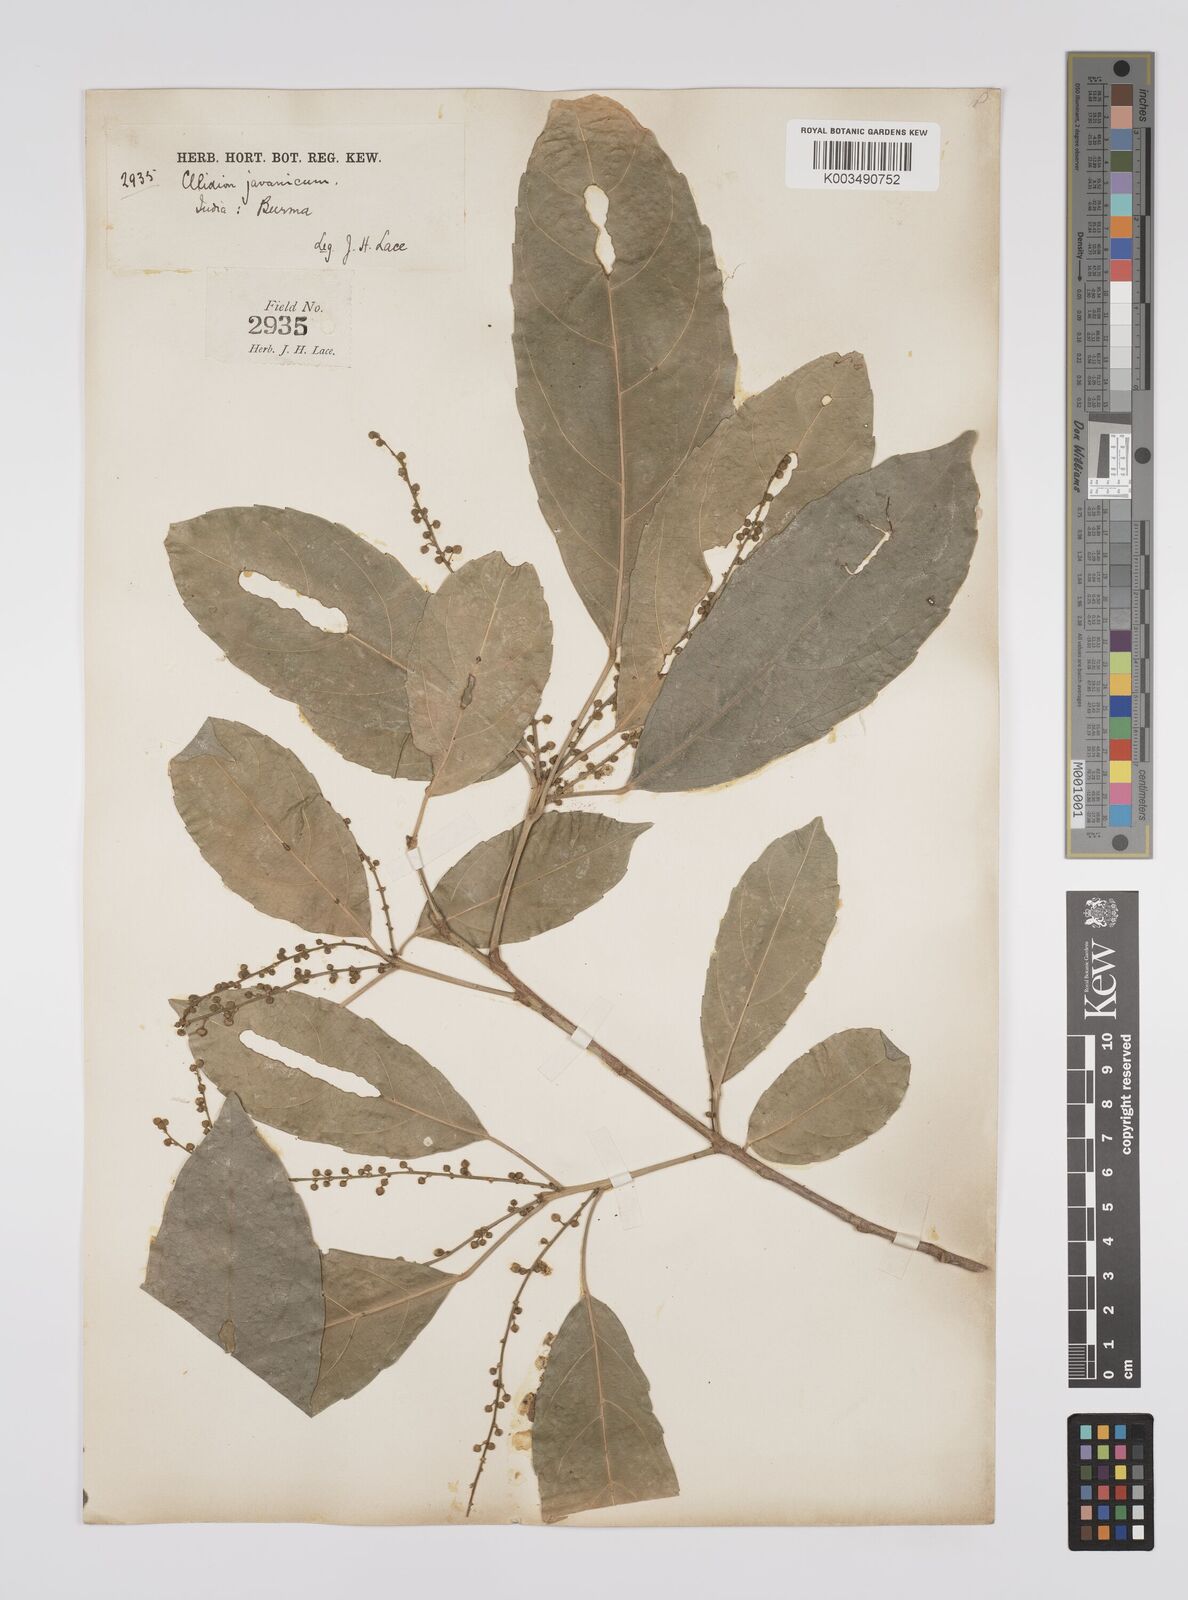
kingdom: Plantae
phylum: Tracheophyta
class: Magnoliopsida
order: Malpighiales
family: Euphorbiaceae
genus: Acalypha
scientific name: Acalypha spiciflora
